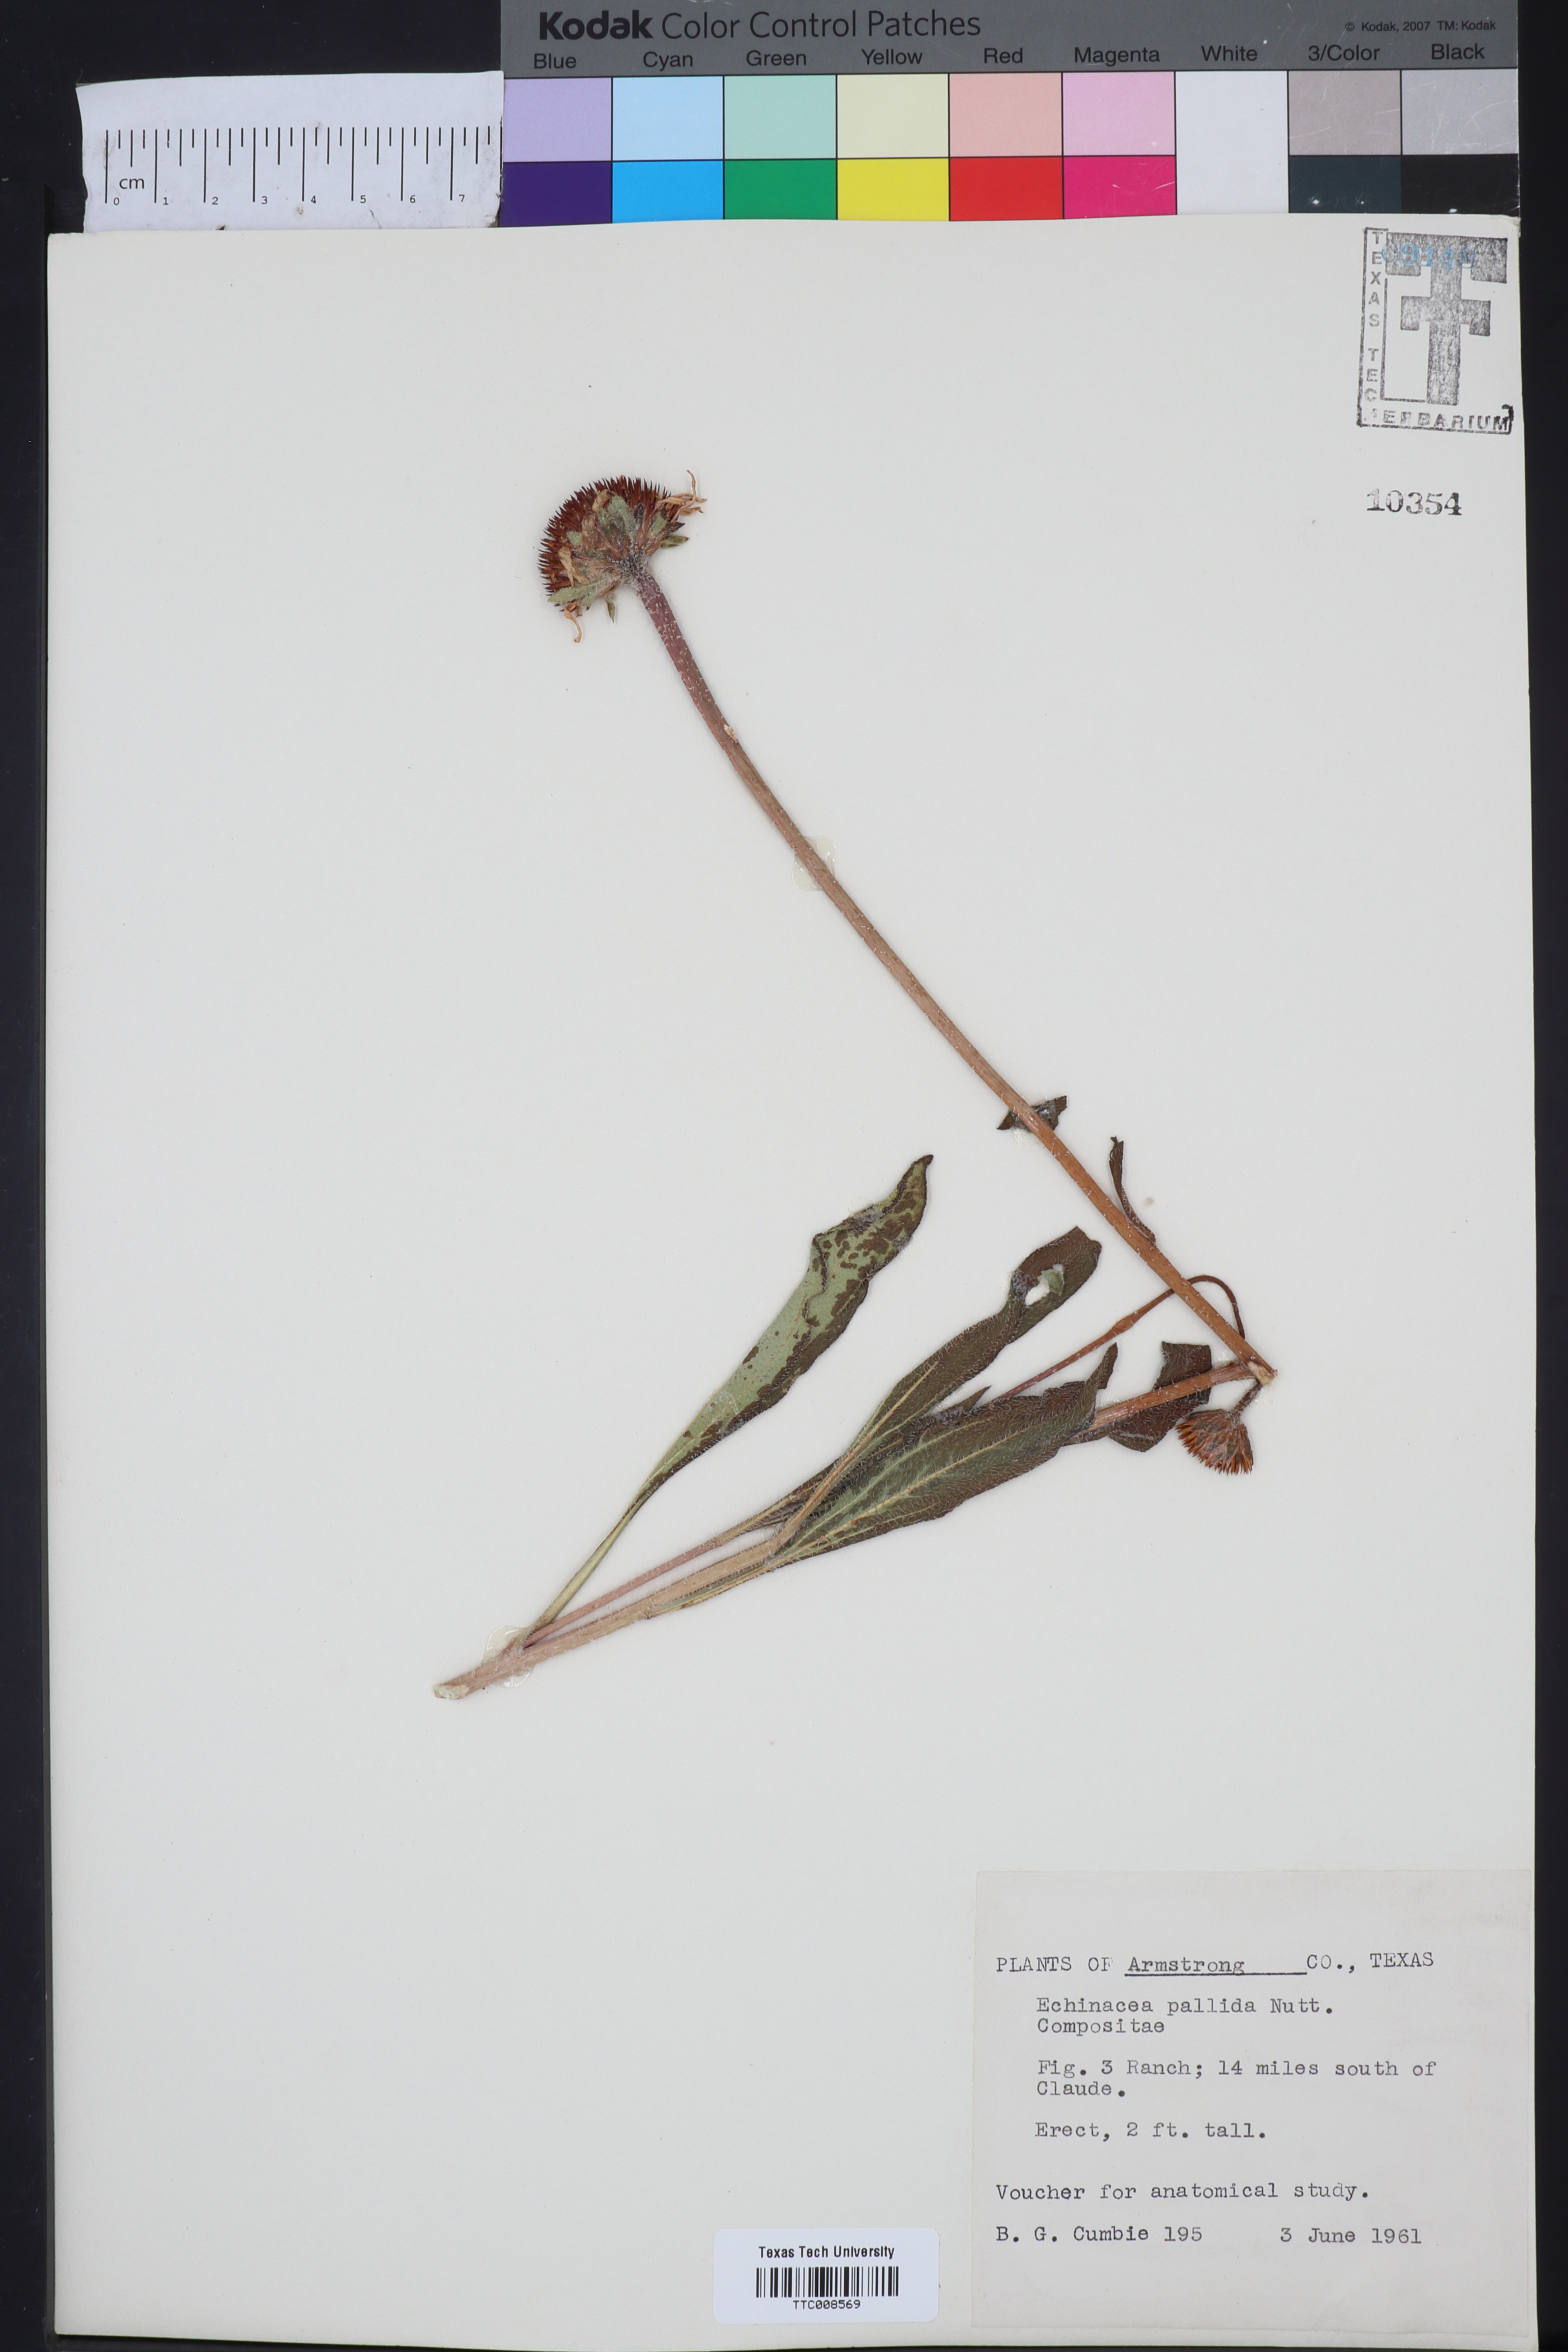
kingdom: Plantae
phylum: Tracheophyta
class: Magnoliopsida
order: Asterales
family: Asteraceae
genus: Echinacea
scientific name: Echinacea pallida
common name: Pale echinacea
